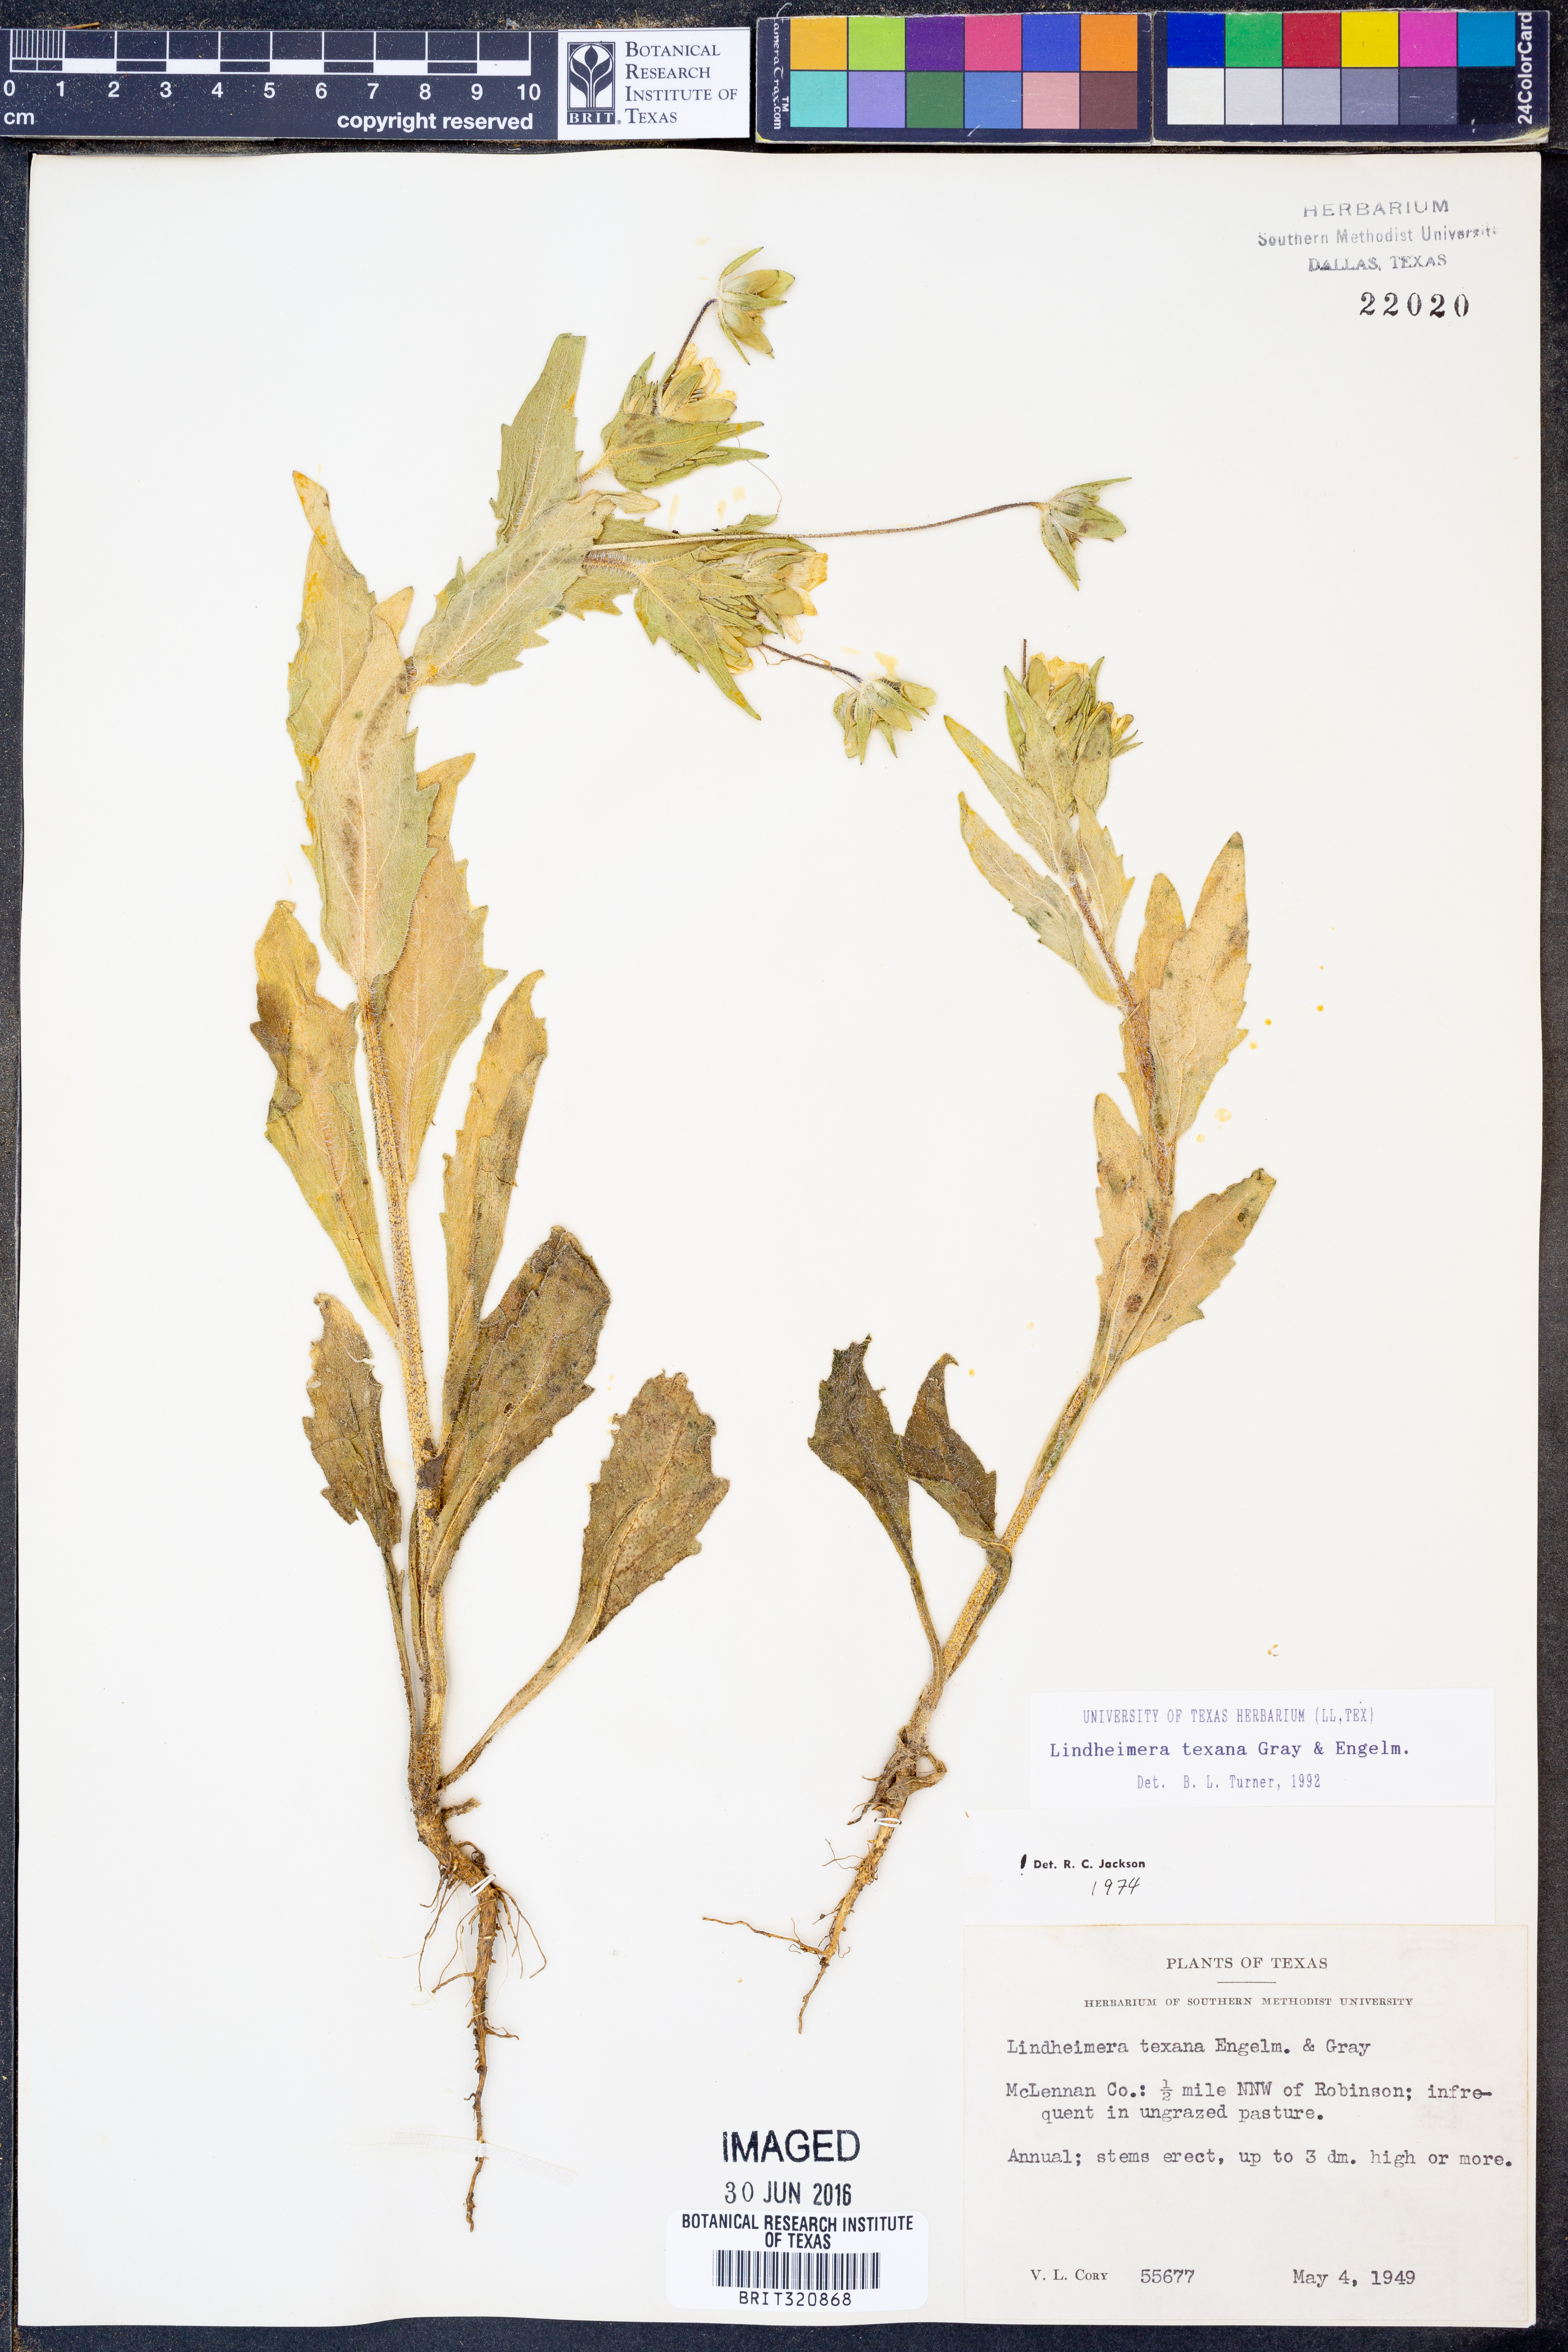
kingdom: Plantae
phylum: Tracheophyta
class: Magnoliopsida
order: Asterales
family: Asteraceae
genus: Lindheimera
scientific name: Lindheimera texana
